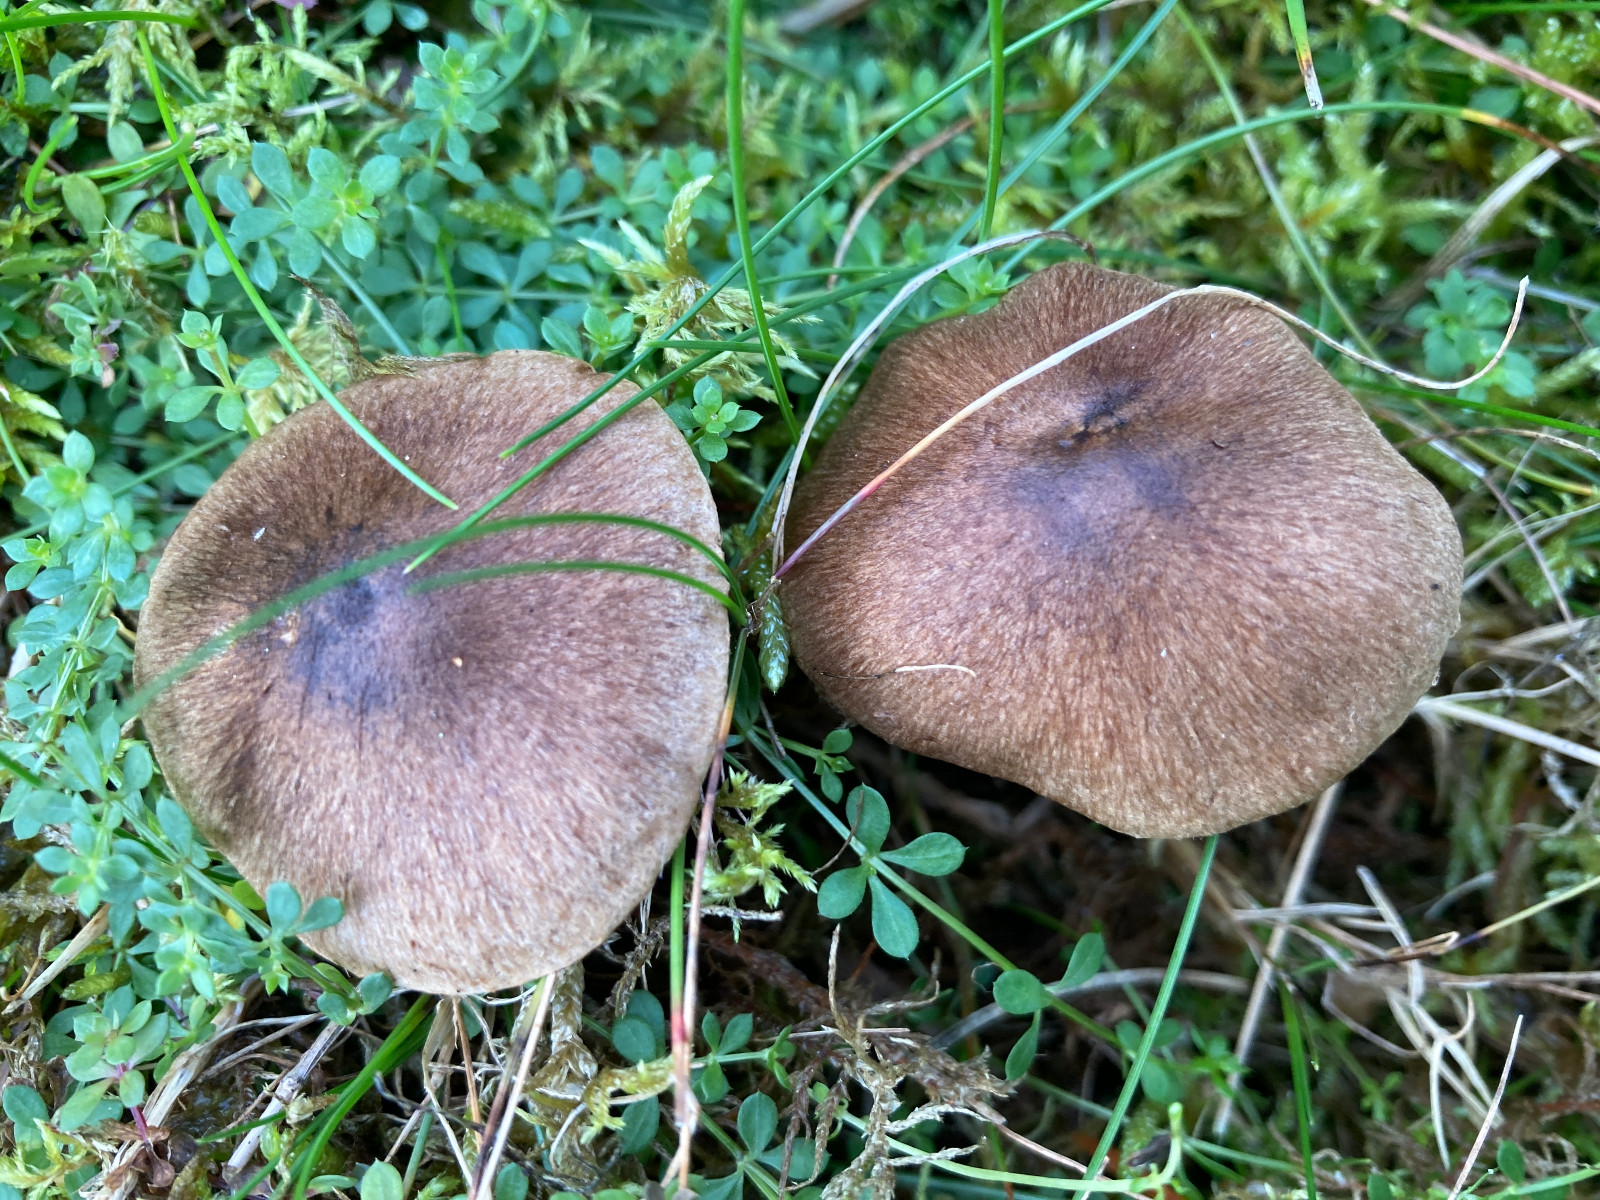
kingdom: Fungi
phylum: Basidiomycota
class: Agaricomycetes
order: Agaricales
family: Inocybaceae
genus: Inocybe
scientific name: Inocybe
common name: trævlhat
